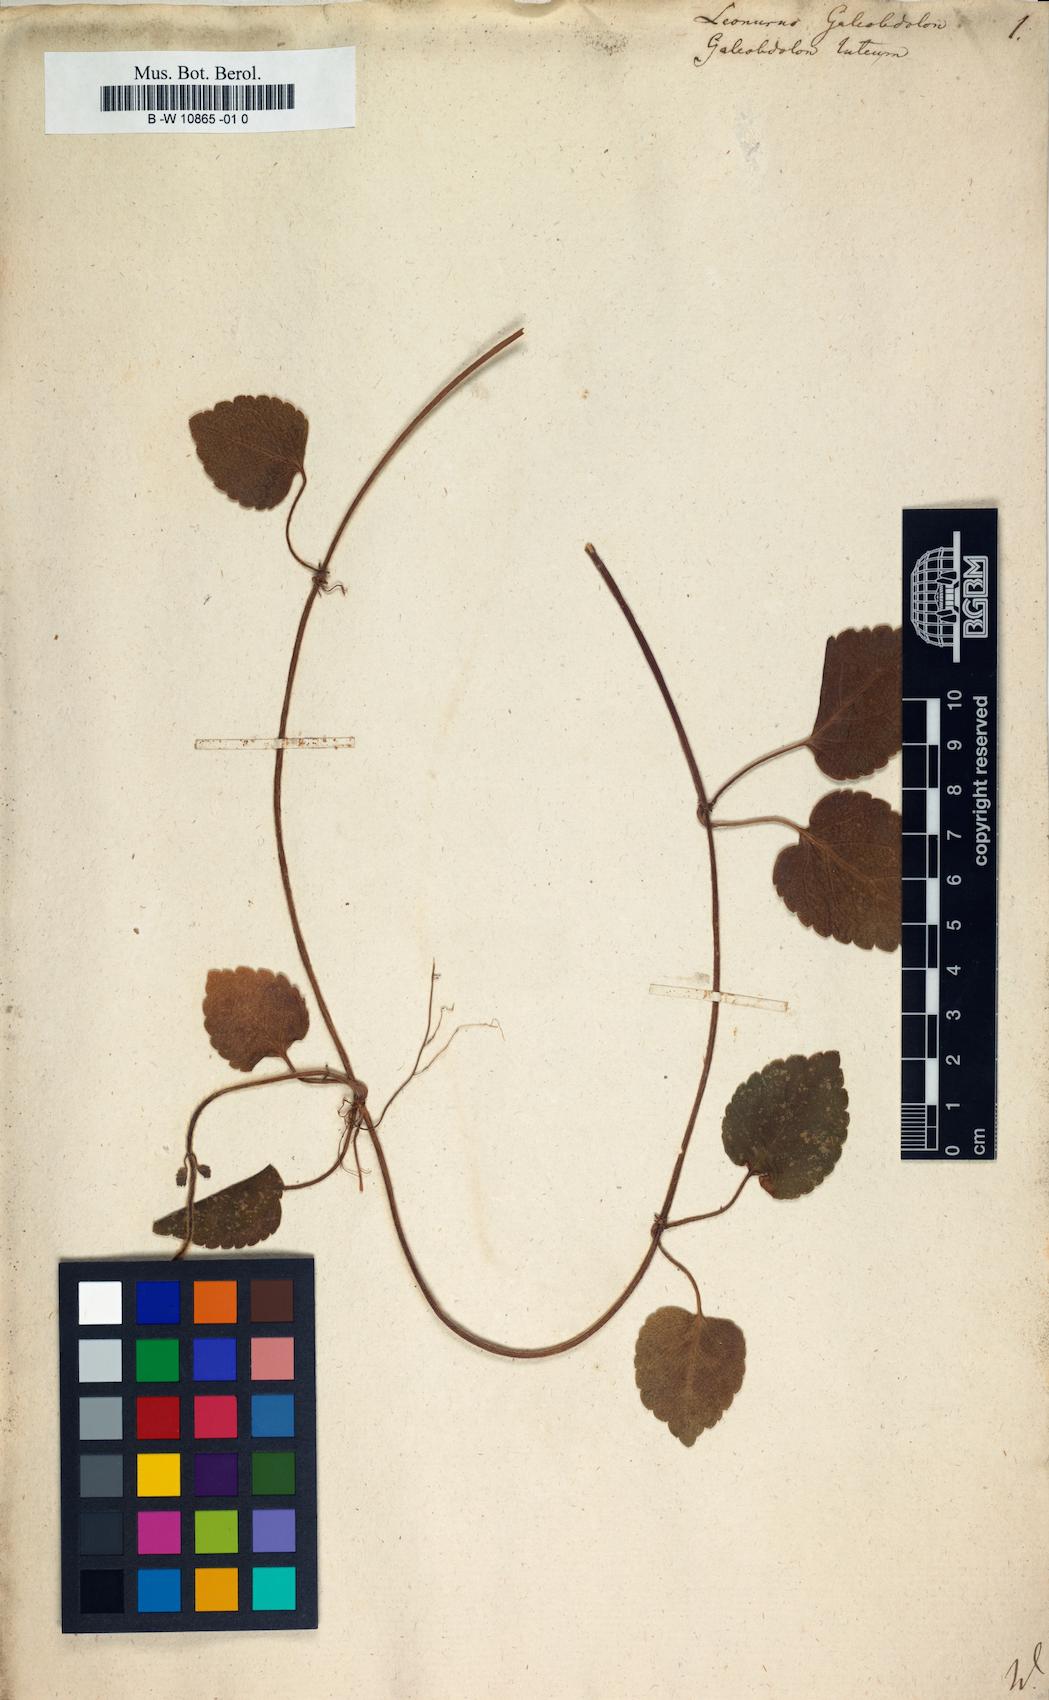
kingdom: Plantae
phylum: Tracheophyta
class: Magnoliopsida
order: Lamiales
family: Lamiaceae
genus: Lamium
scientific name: Lamium galeobdolon
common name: Yellow archangel
